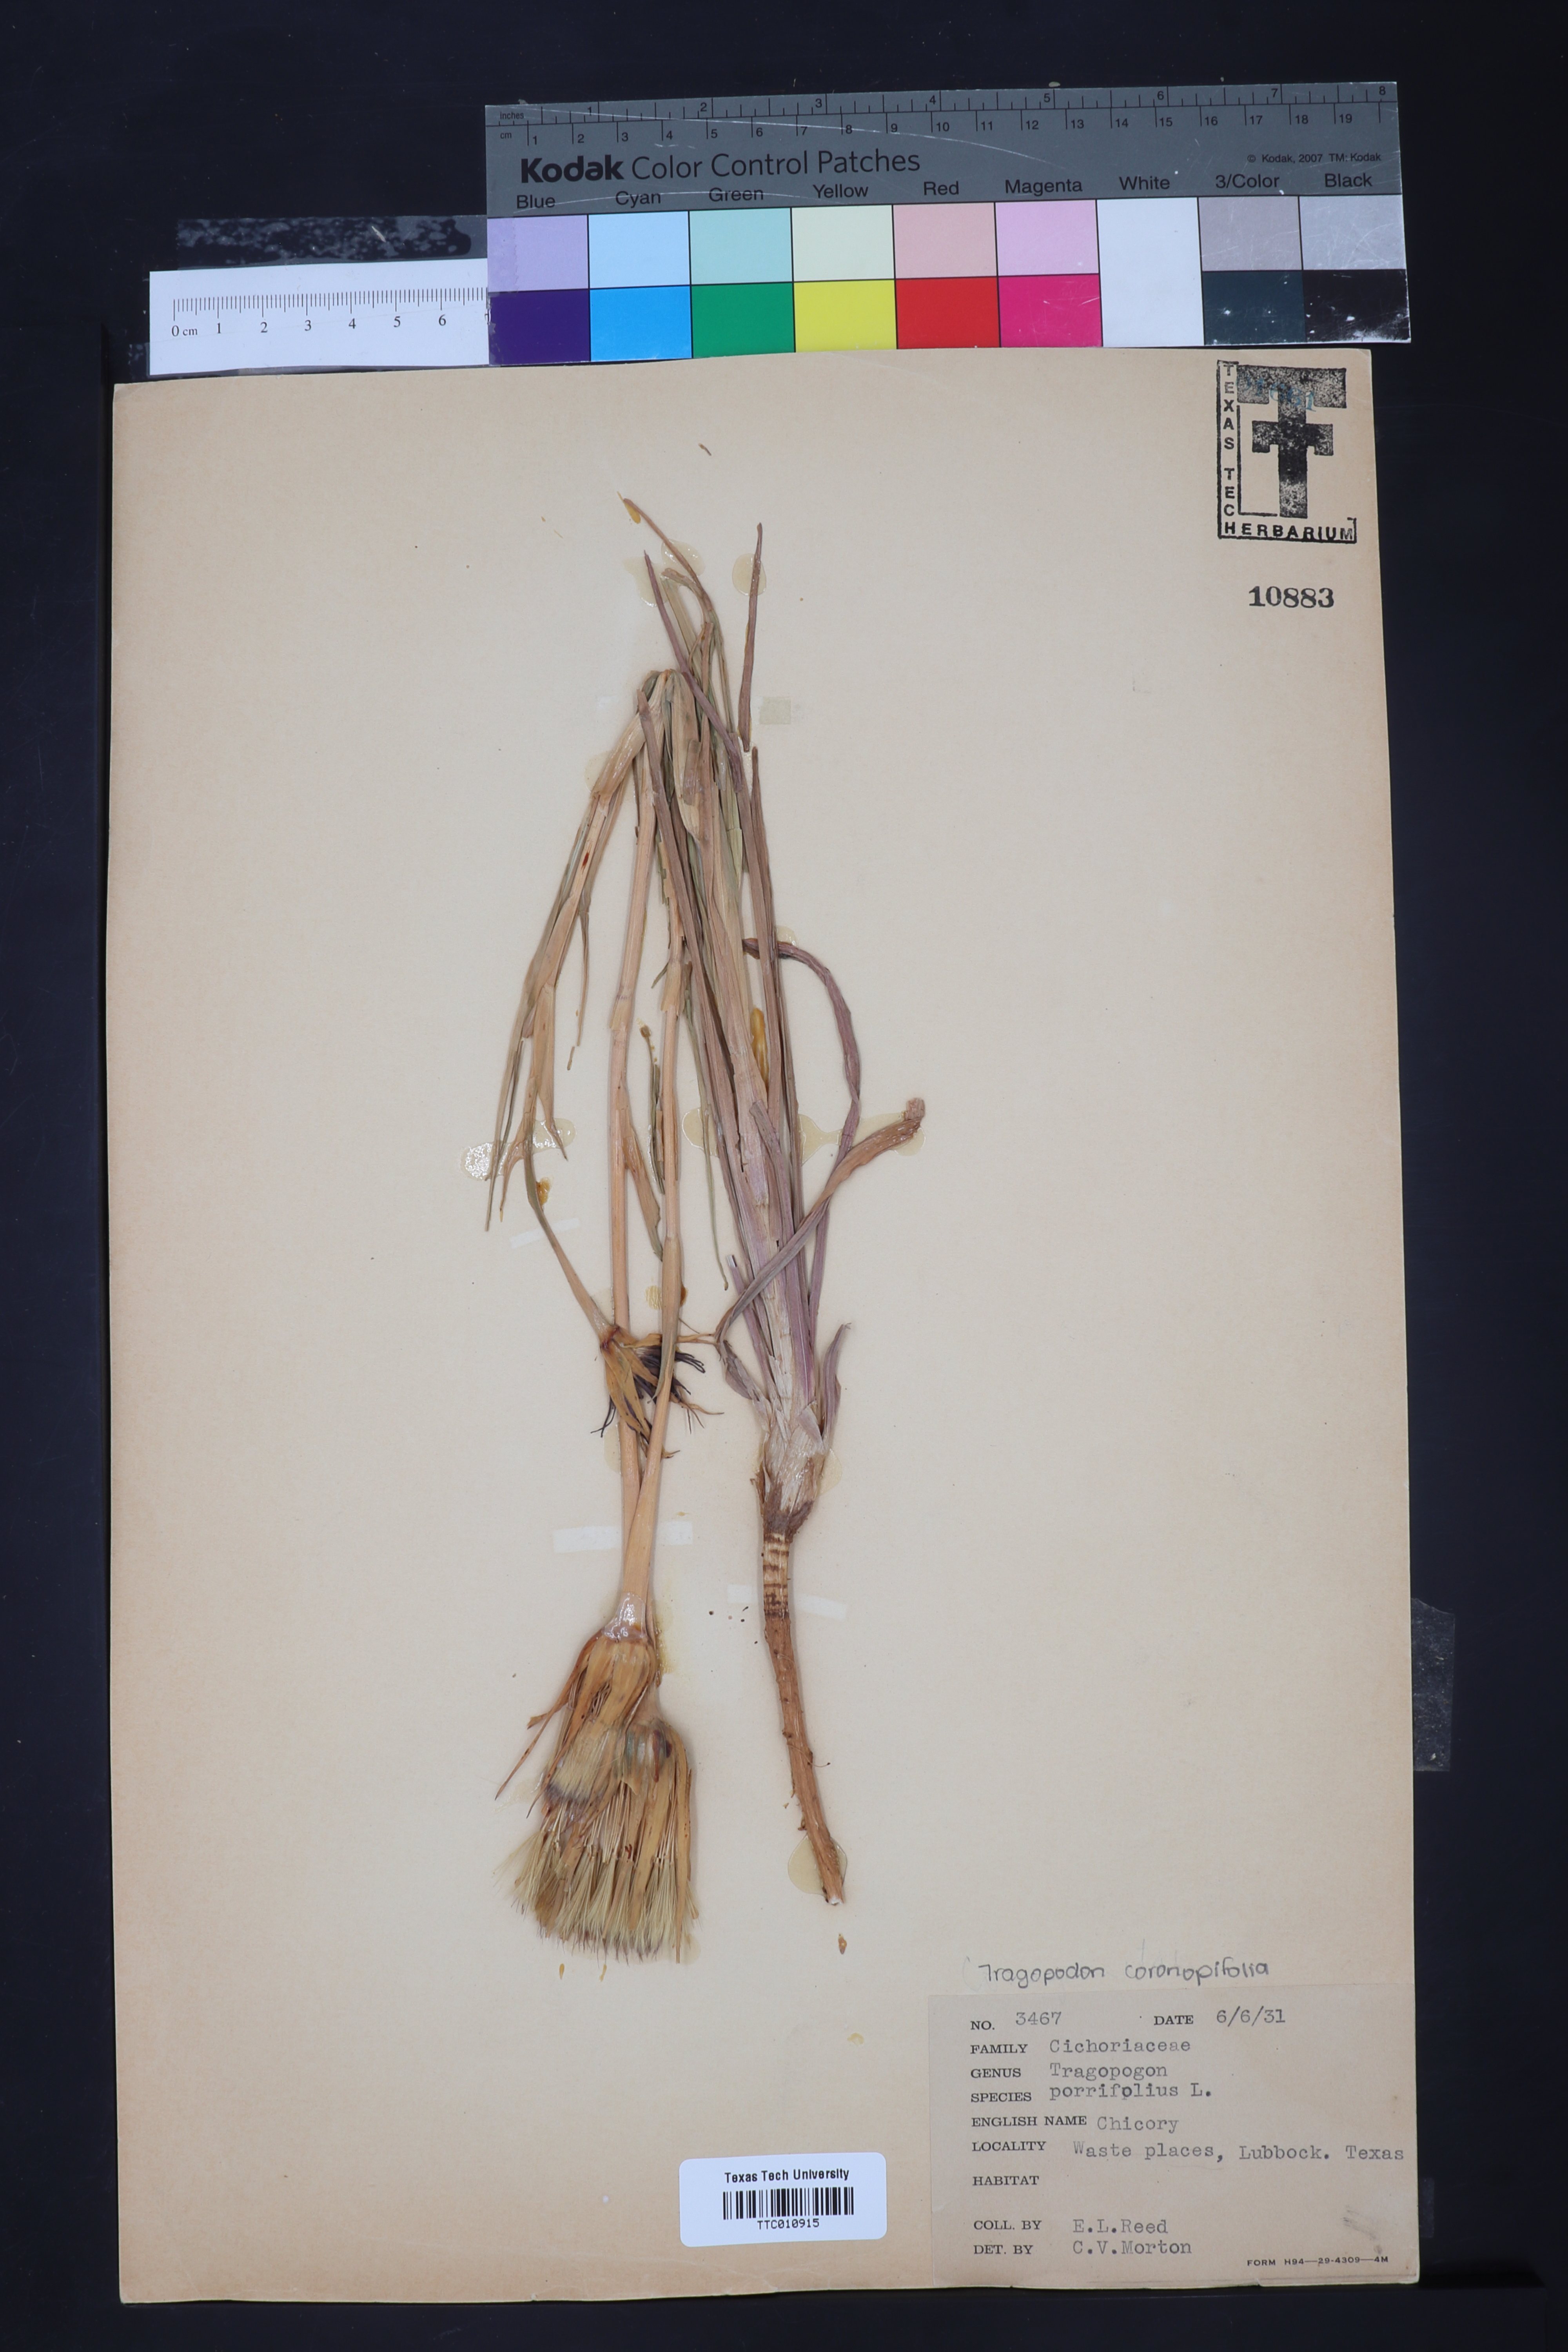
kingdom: Plantae
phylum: Tracheophyta
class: Magnoliopsida
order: Asterales
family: Asteraceae
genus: Tragopogon
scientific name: Tragopogon porrifolius
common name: Salsify
